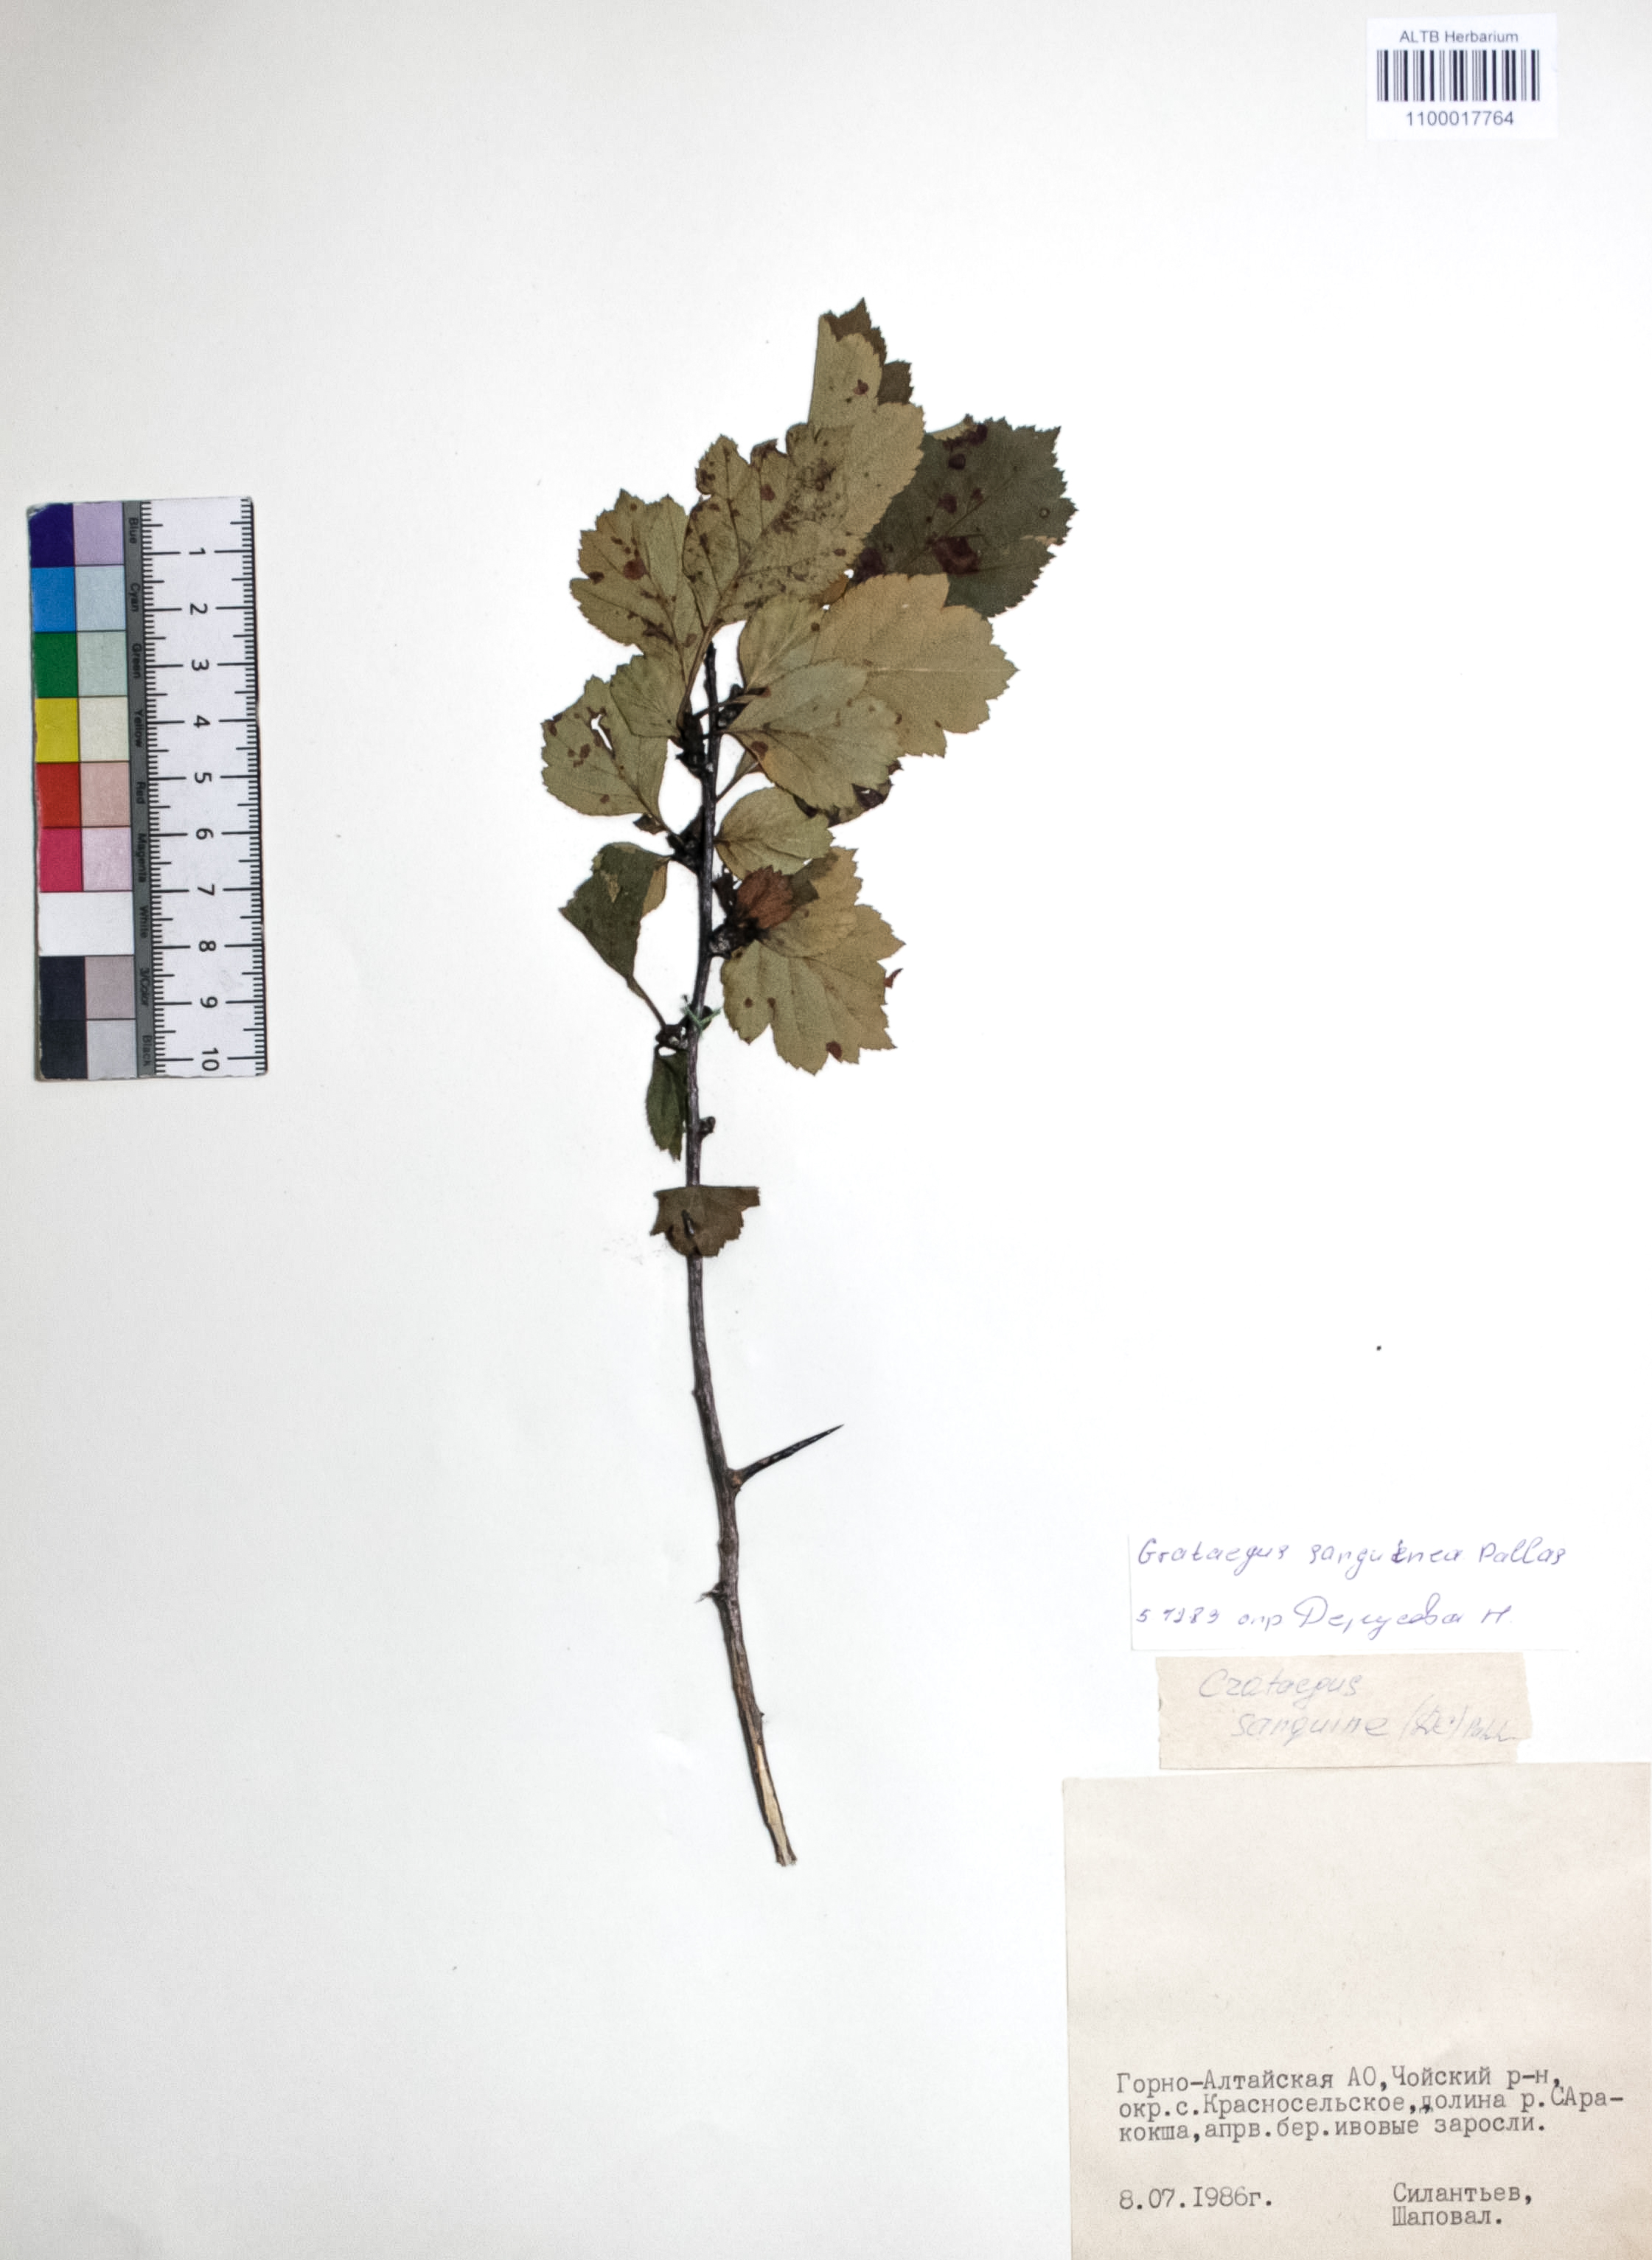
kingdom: Plantae
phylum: Tracheophyta
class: Magnoliopsida
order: Rosales
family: Rosaceae
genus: Crataegus
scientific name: Crataegus sanguinea
